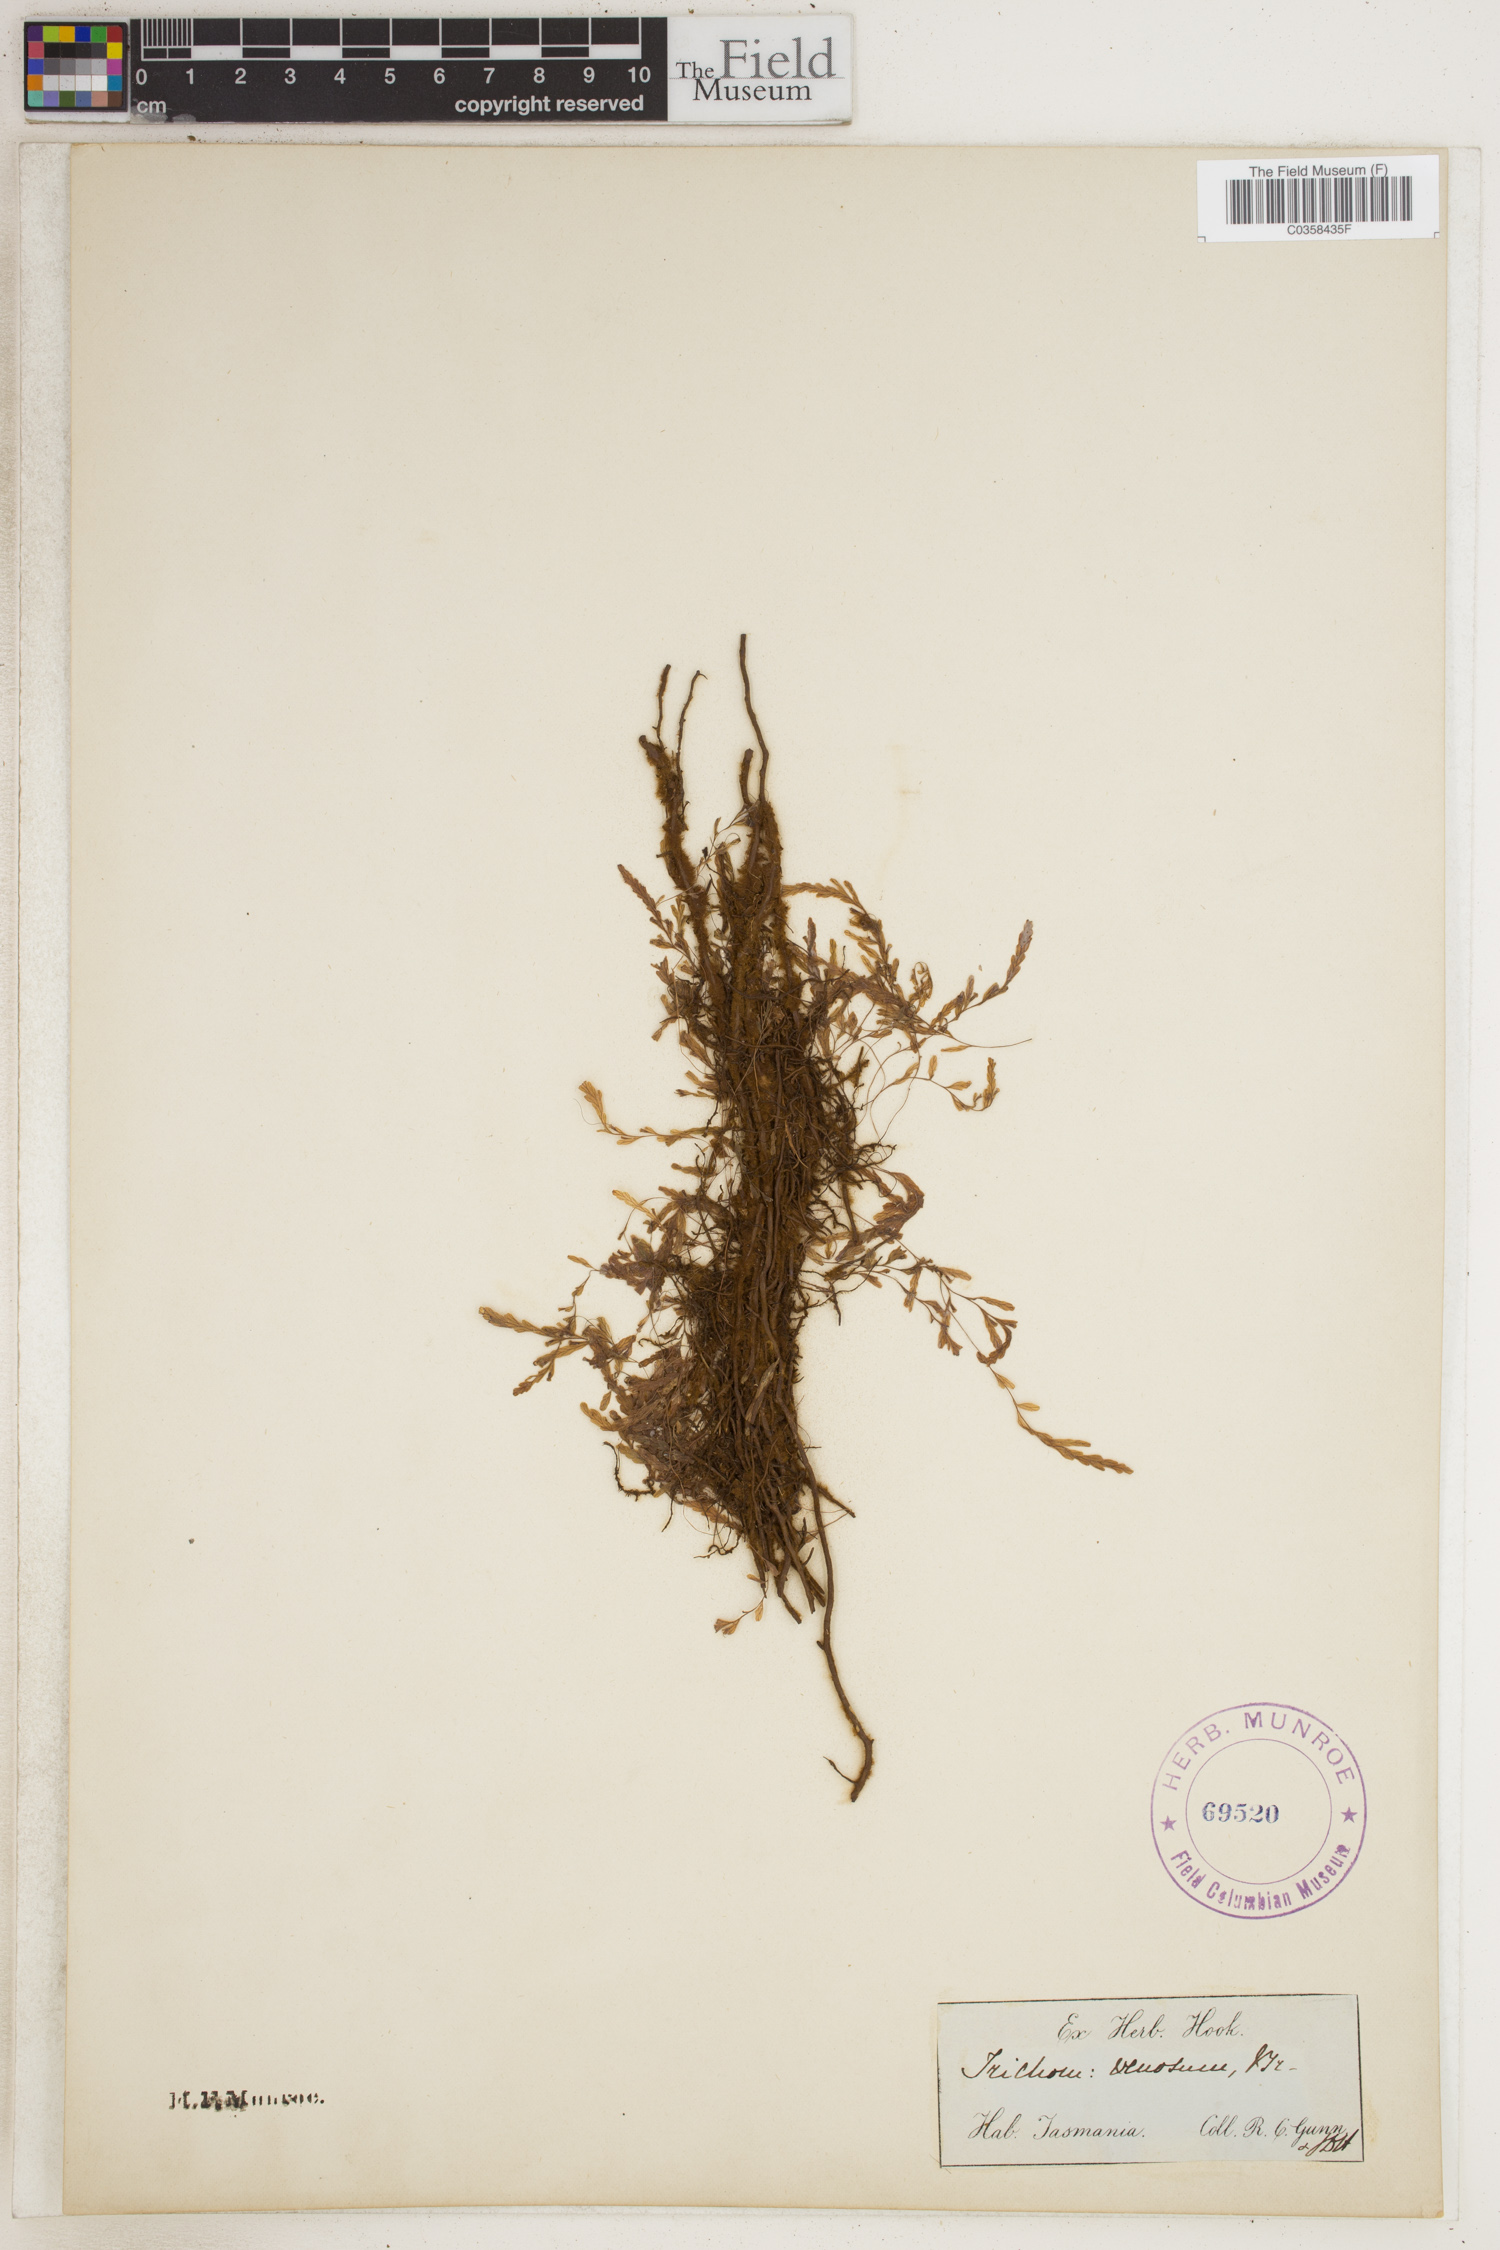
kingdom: Plantae
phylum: Tracheophyta
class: Polypodiopsida
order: Hymenophyllales
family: Hymenophyllaceae
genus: Polyphlebium
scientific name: Polyphlebium venosum
